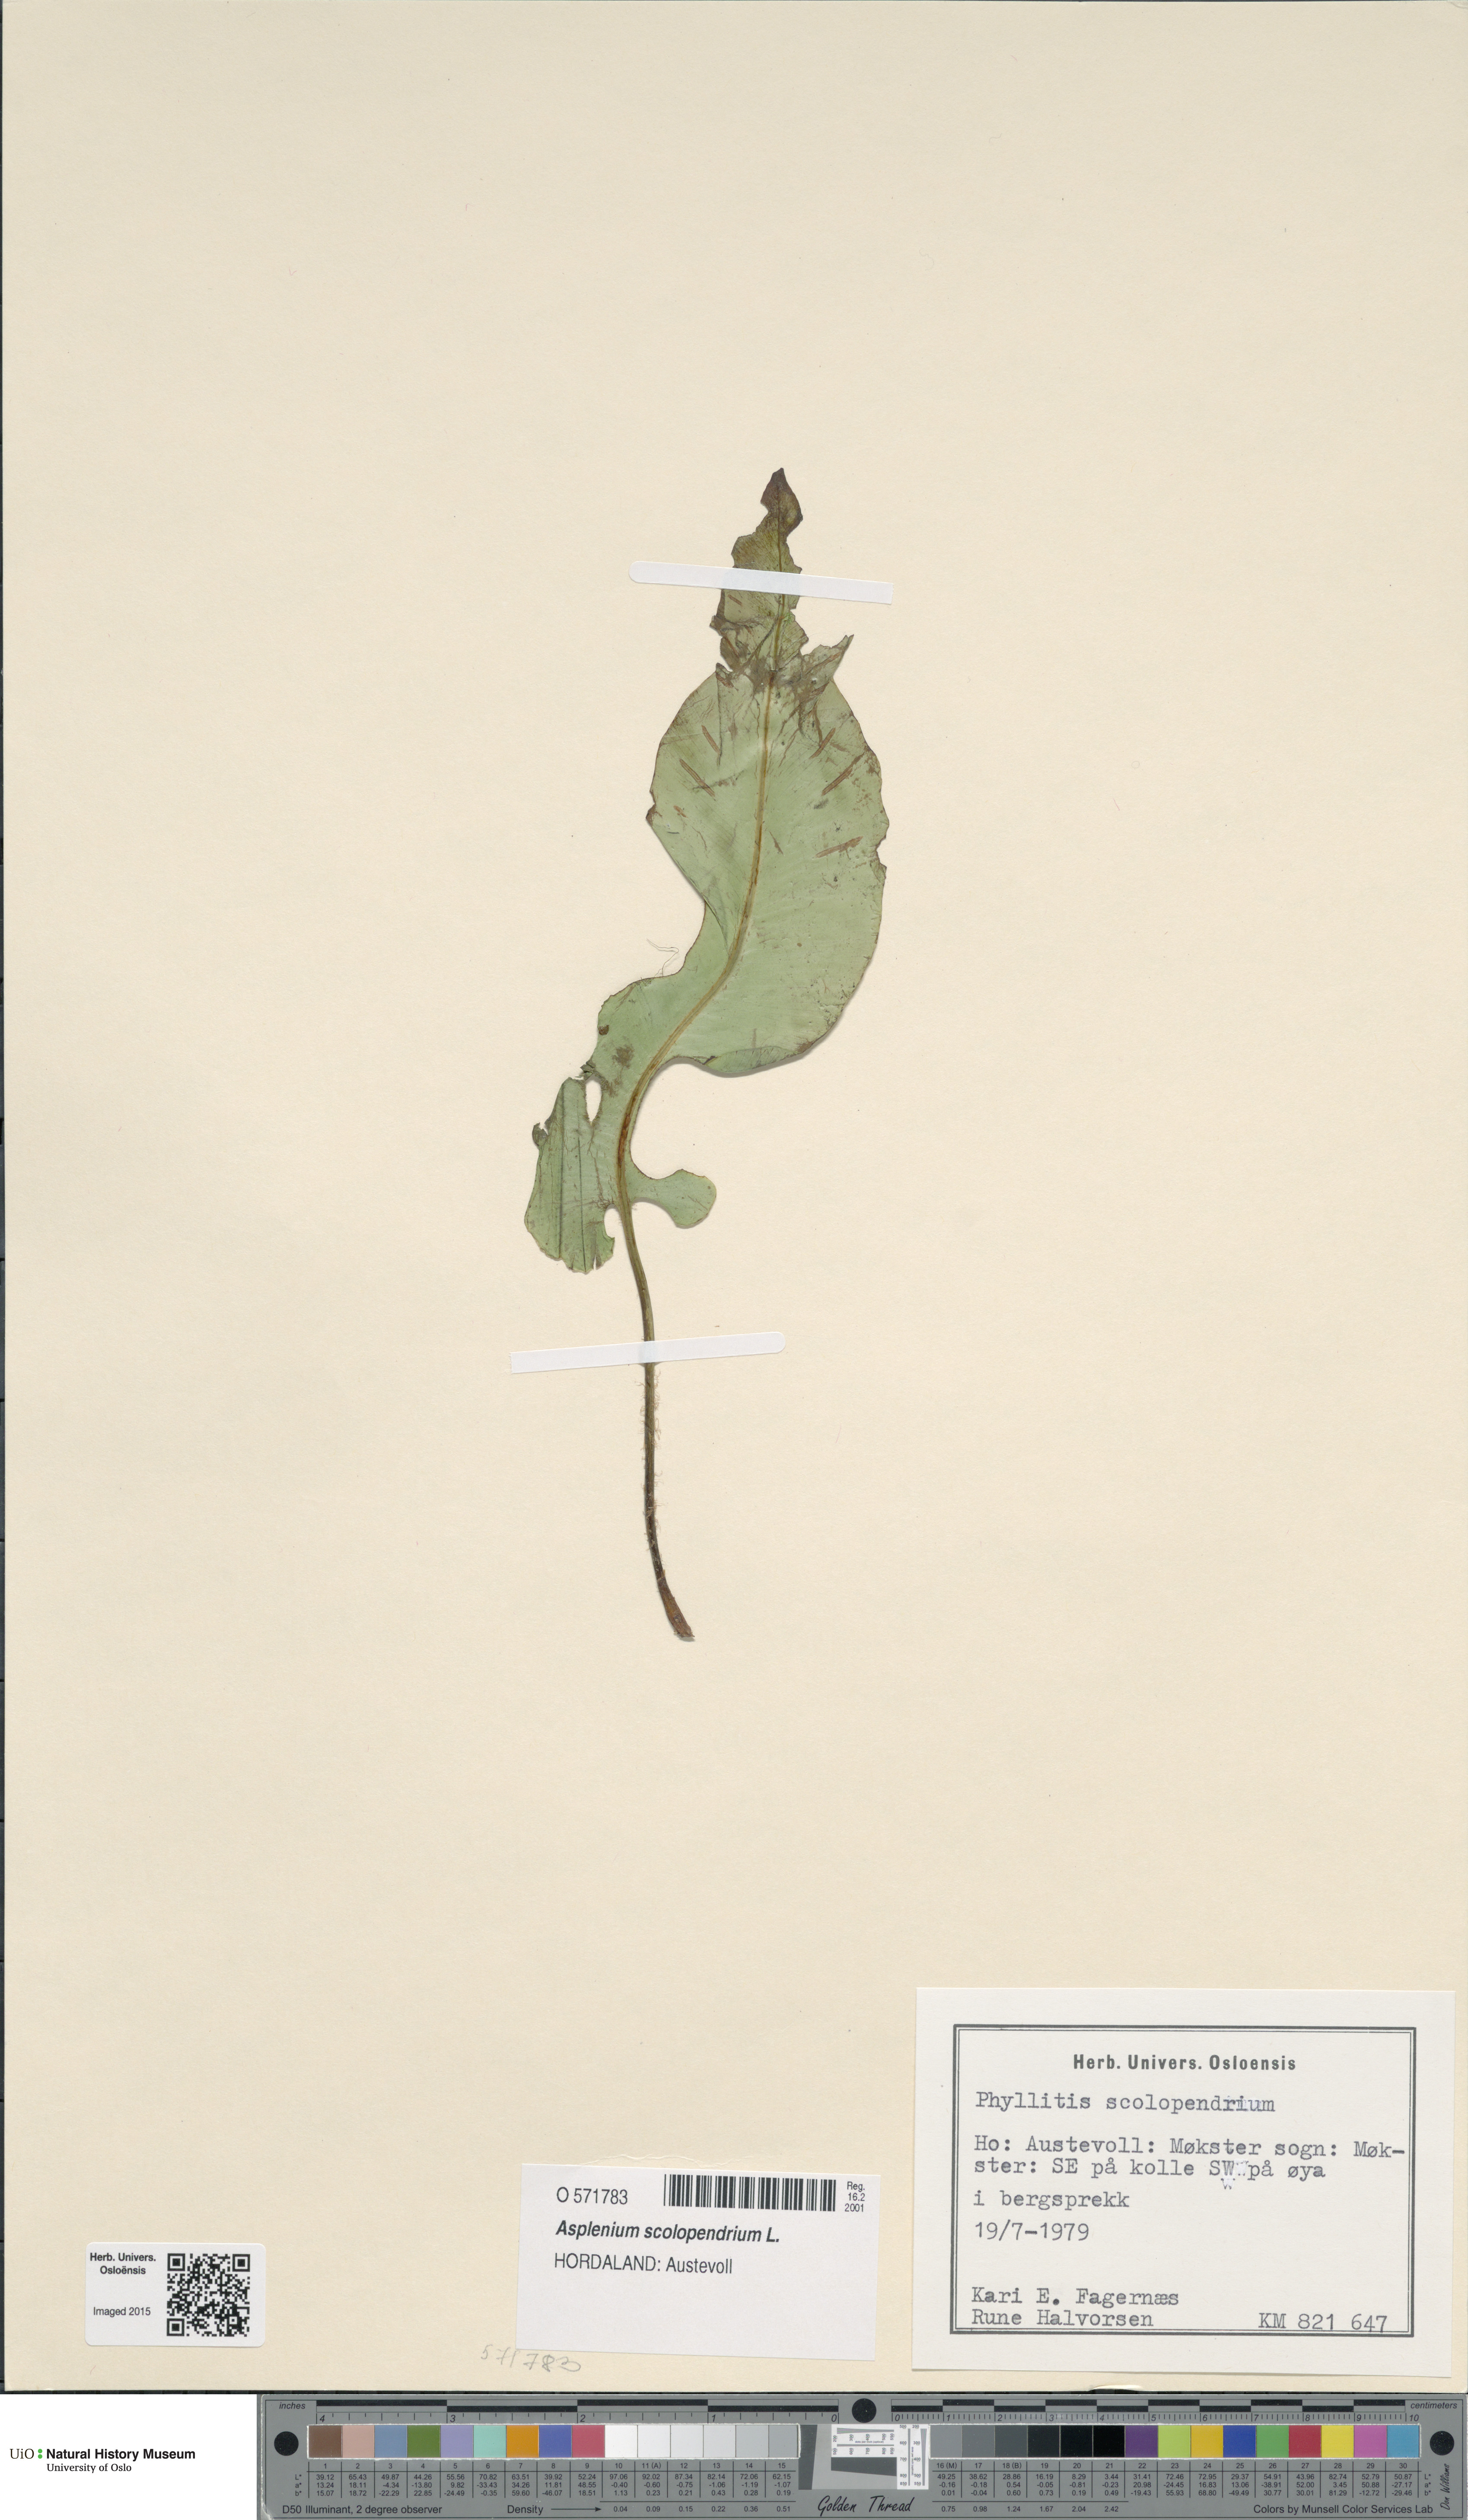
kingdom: Plantae
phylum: Tracheophyta
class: Polypodiopsida
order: Polypodiales
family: Aspleniaceae
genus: Asplenium
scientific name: Asplenium scolopendrium
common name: Hart's-tongue fern
